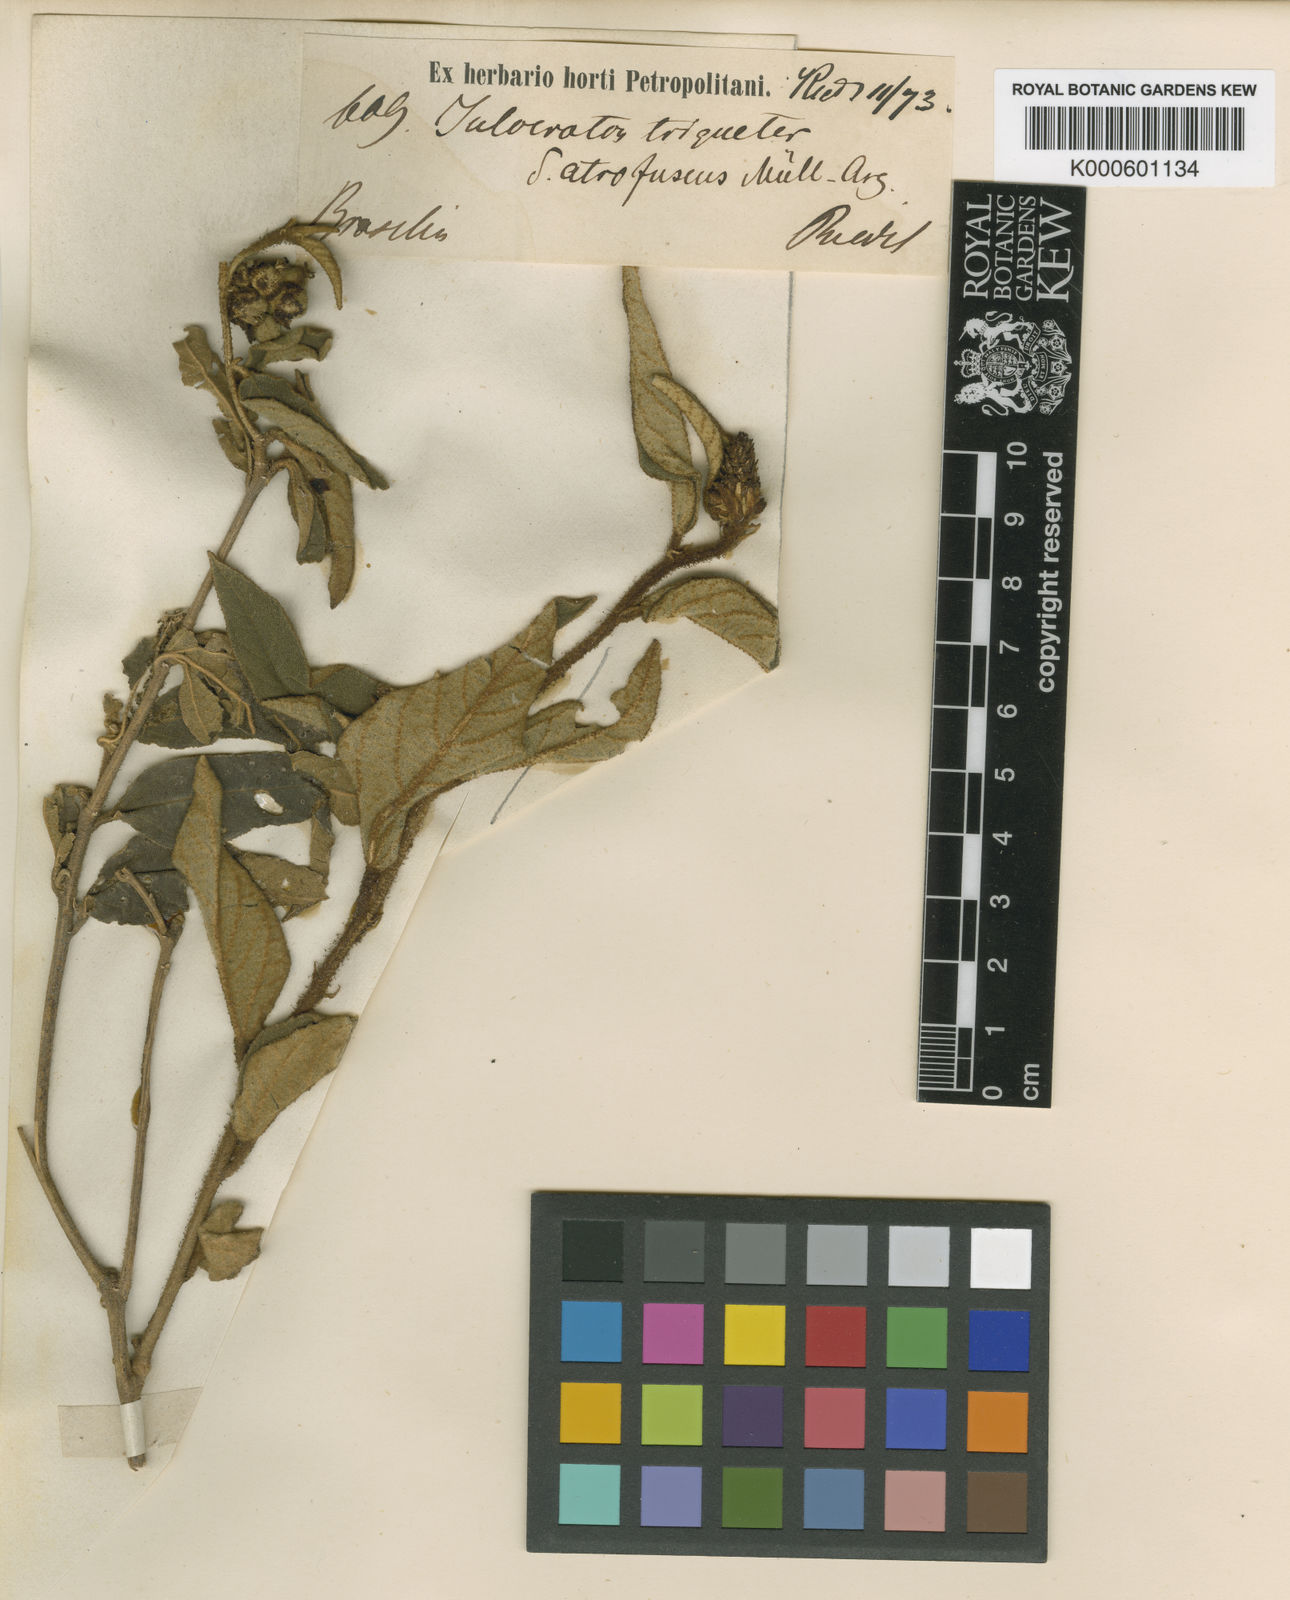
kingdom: Plantae
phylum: Tracheophyta
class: Magnoliopsida
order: Malpighiales
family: Euphorbiaceae
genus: Croton
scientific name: Croton triqueter
